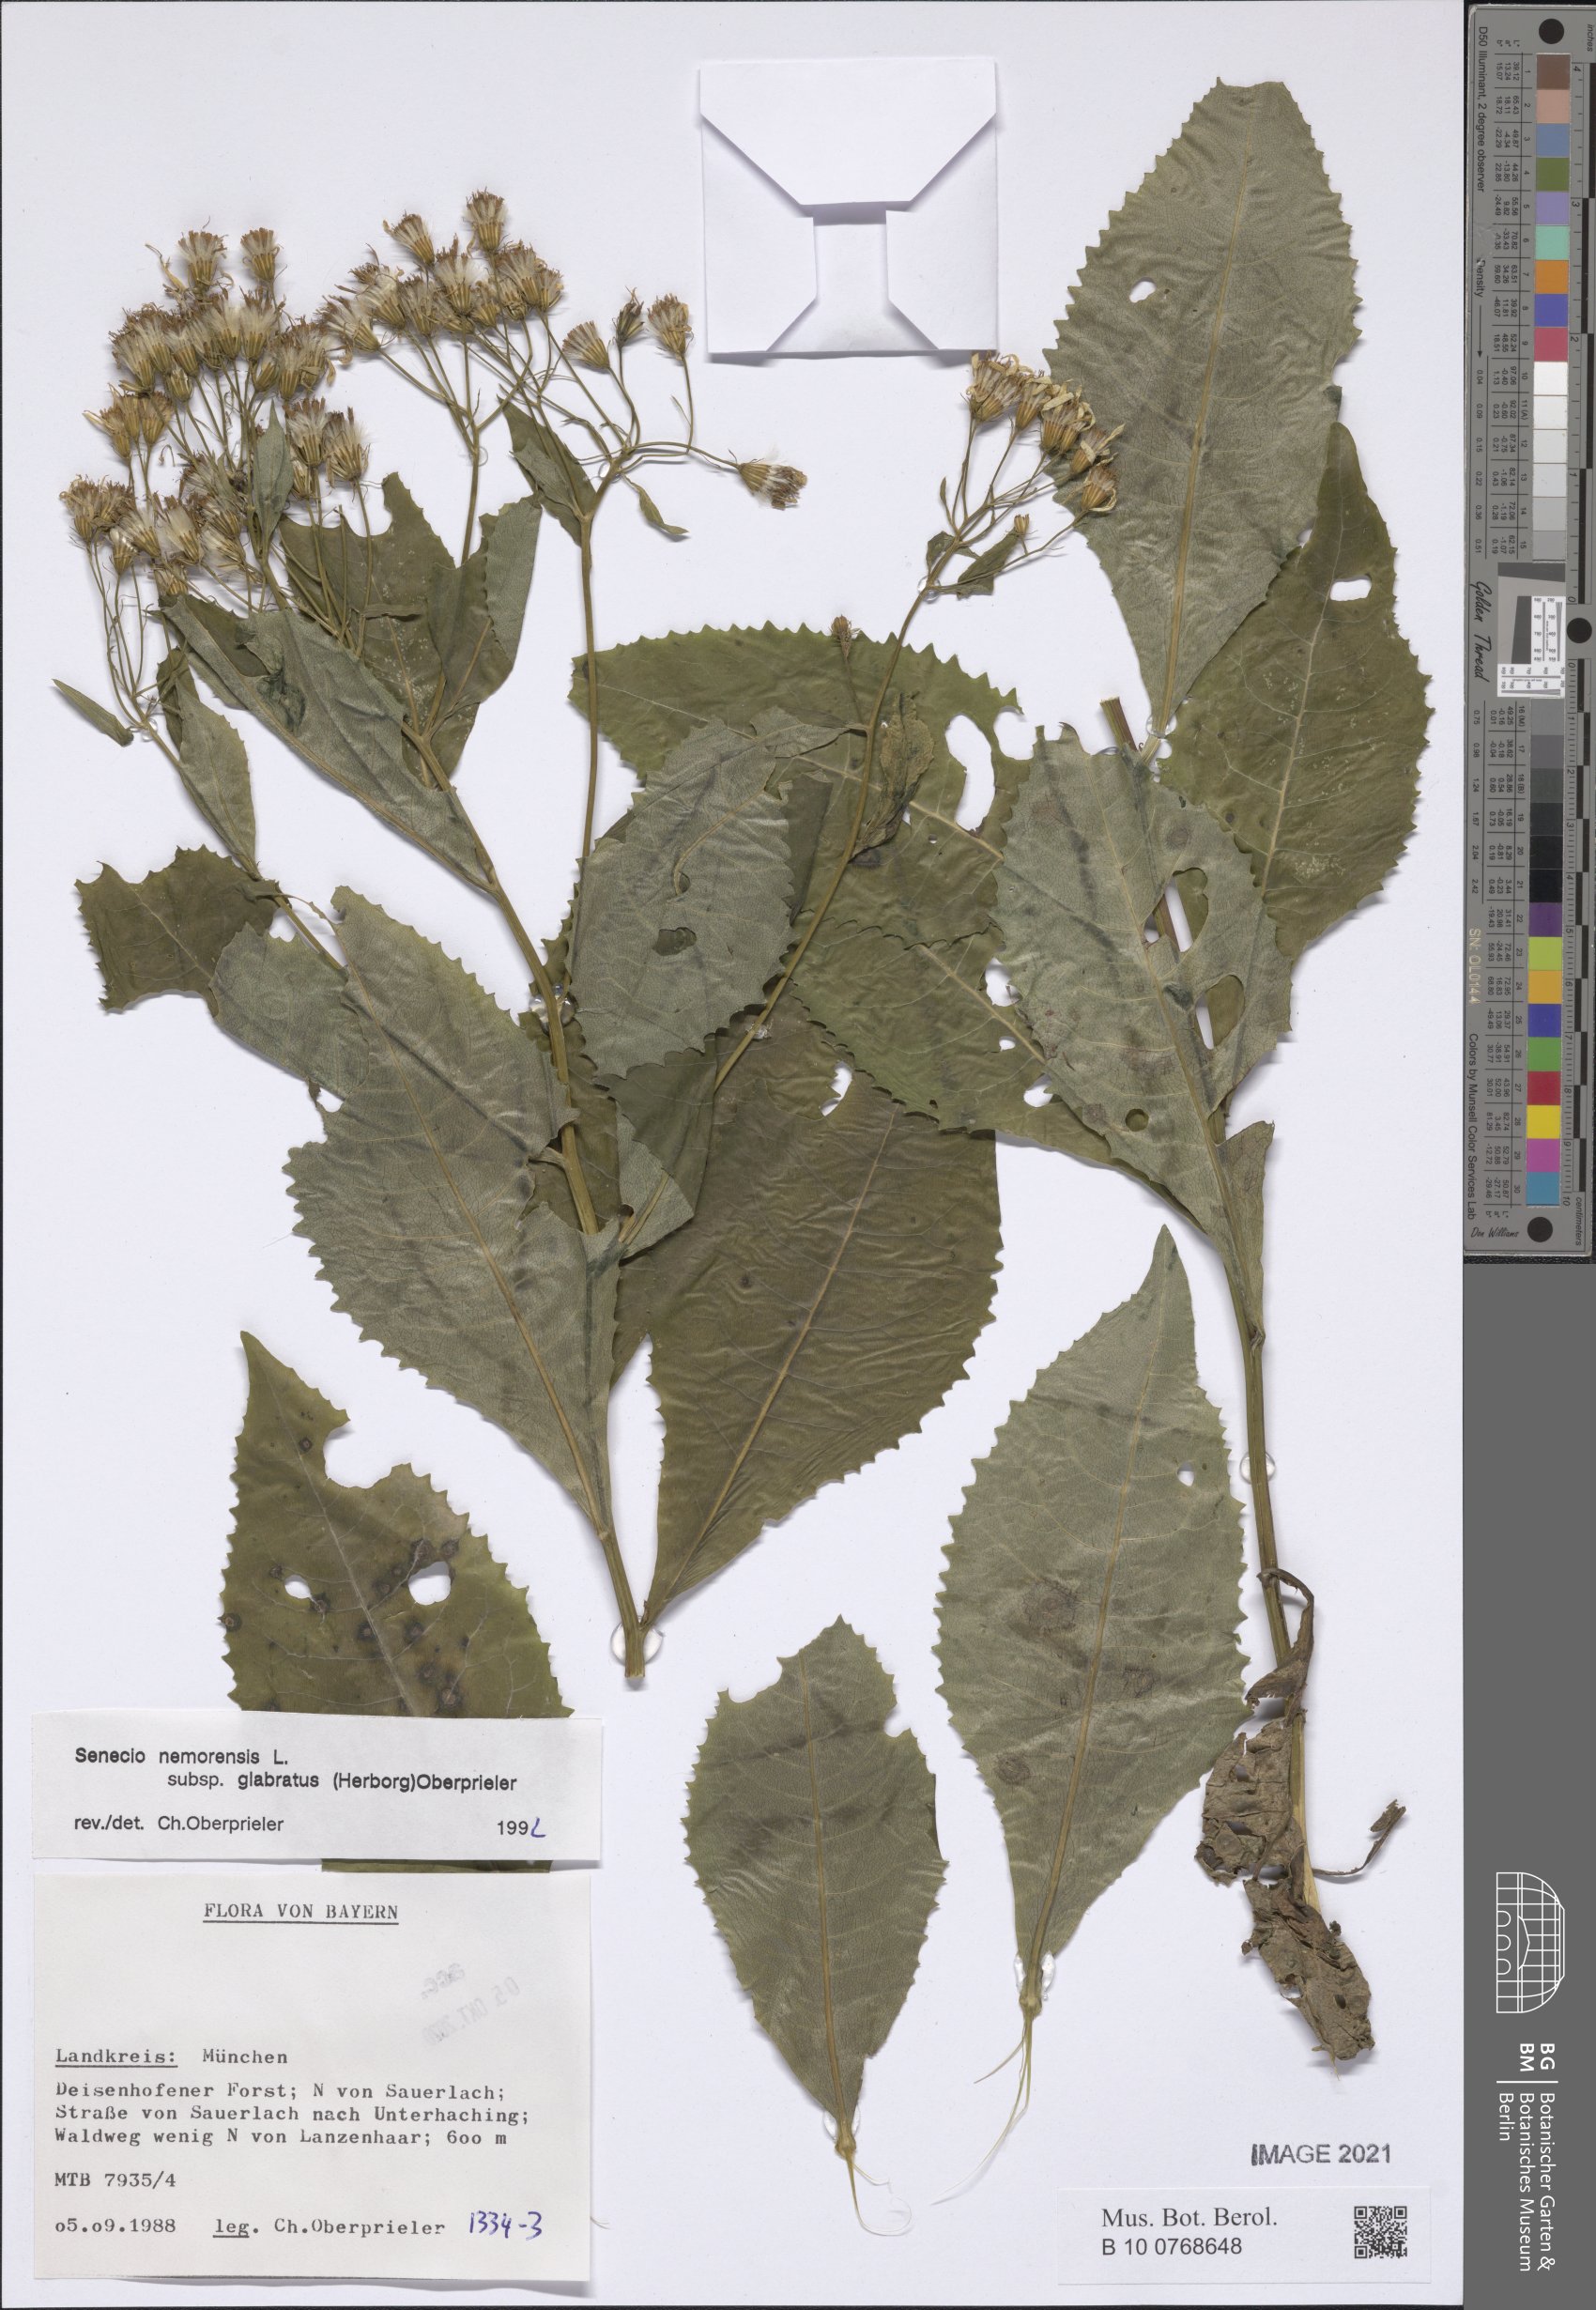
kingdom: Plantae
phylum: Tracheophyta
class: Magnoliopsida
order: Asterales
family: Asteraceae
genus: Senecio
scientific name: Senecio germanicus
